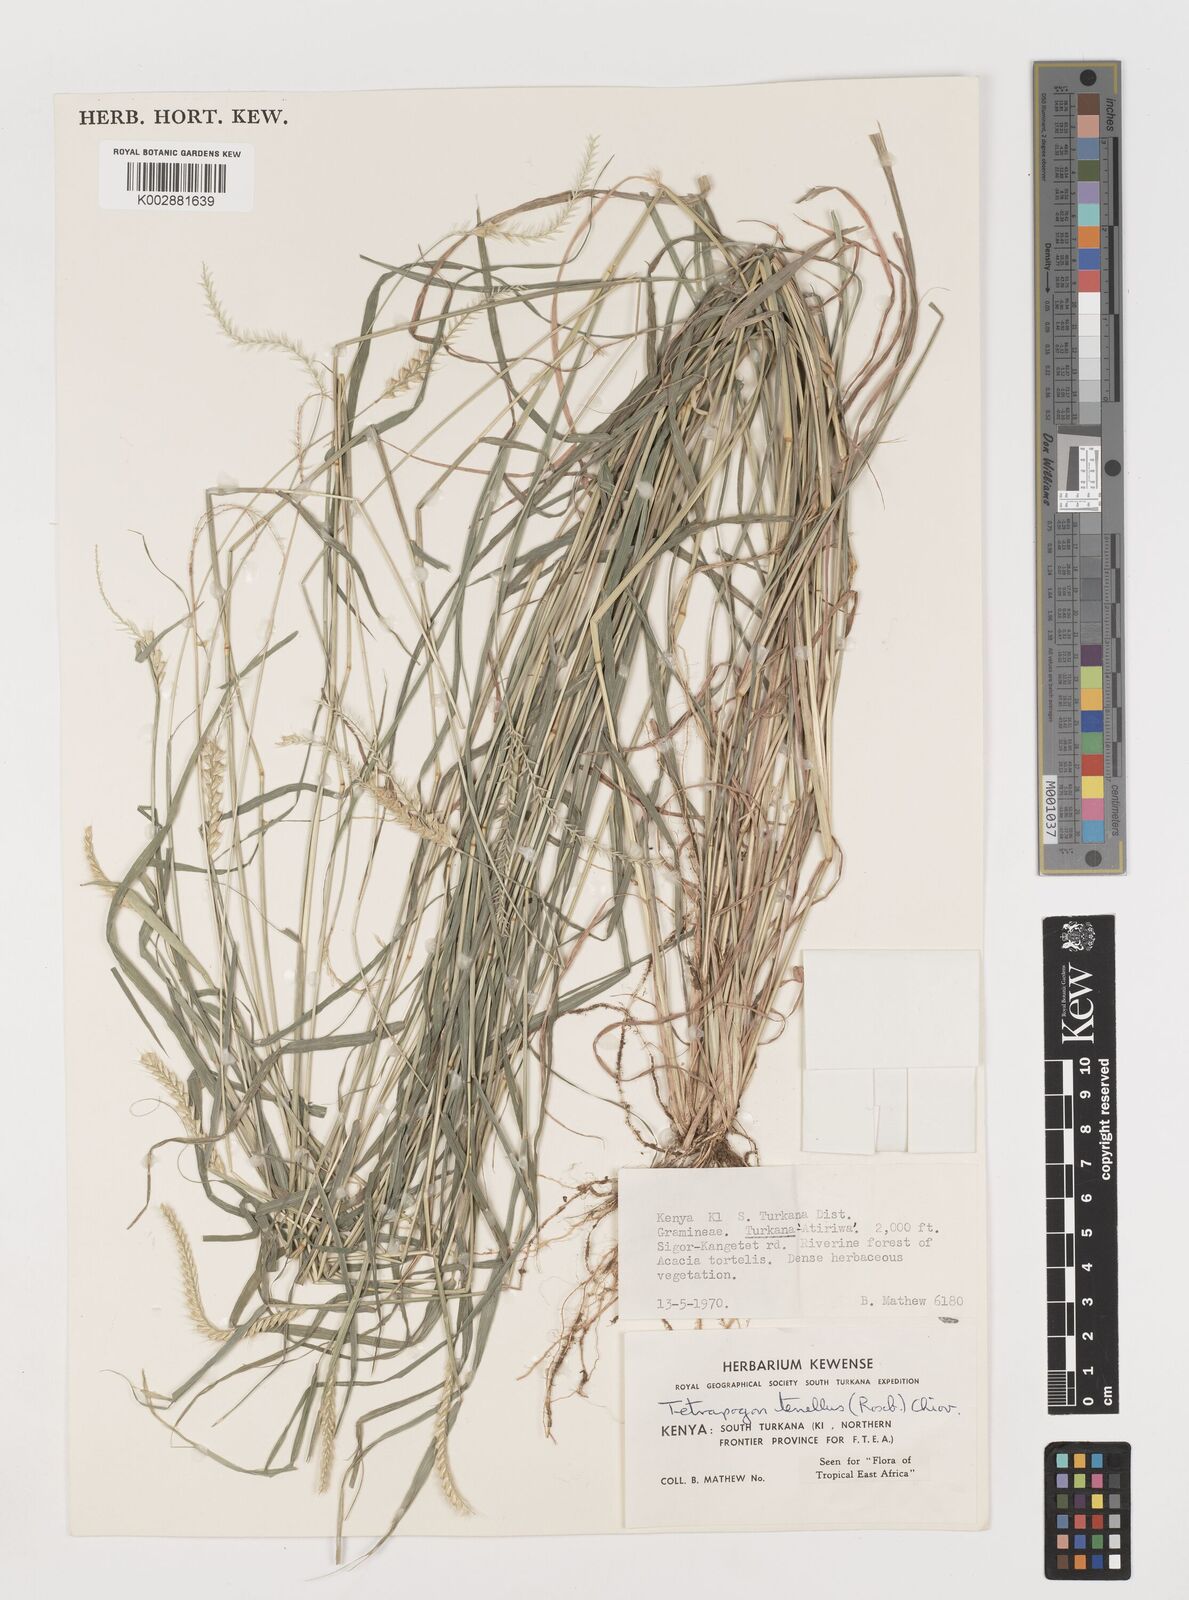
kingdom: Plantae
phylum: Tracheophyta
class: Liliopsida
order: Poales
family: Poaceae
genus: Tetrapogon
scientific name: Tetrapogon tenellus
